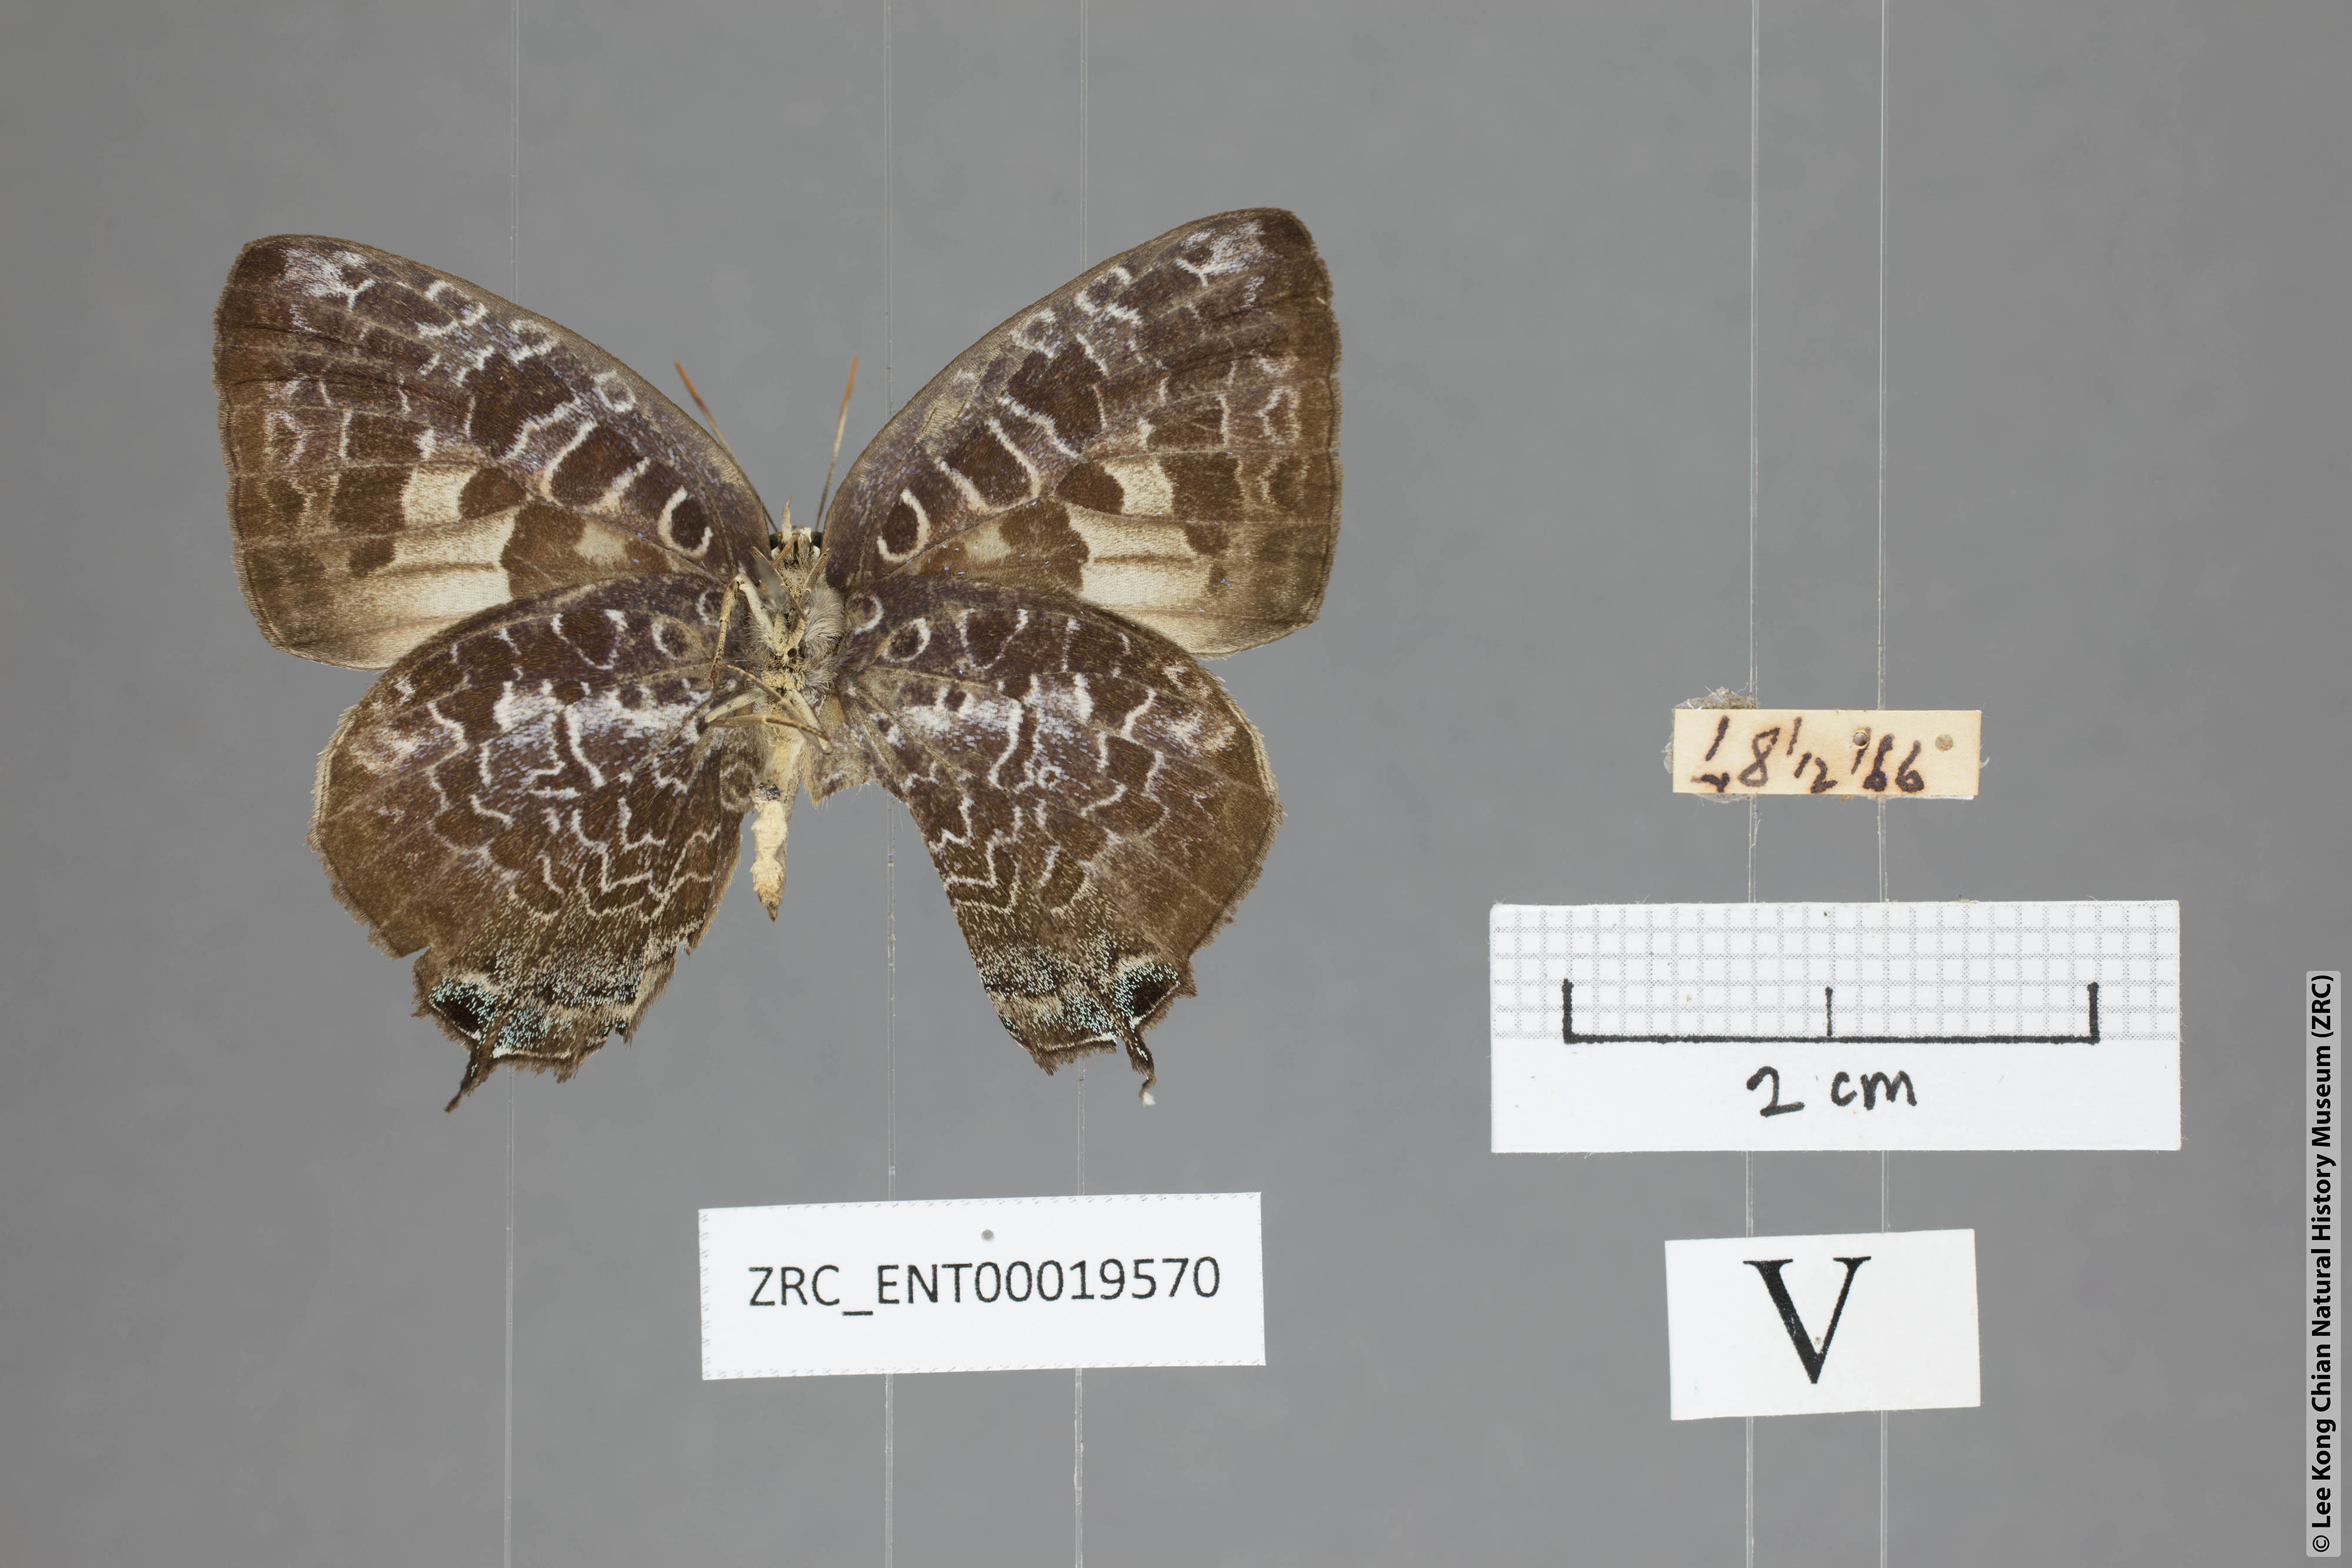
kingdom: Animalia
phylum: Arthropoda
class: Insecta
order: Lepidoptera
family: Lycaenidae
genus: Arhopala
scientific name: Arhopala ijauensis
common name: White-banded oakblue
